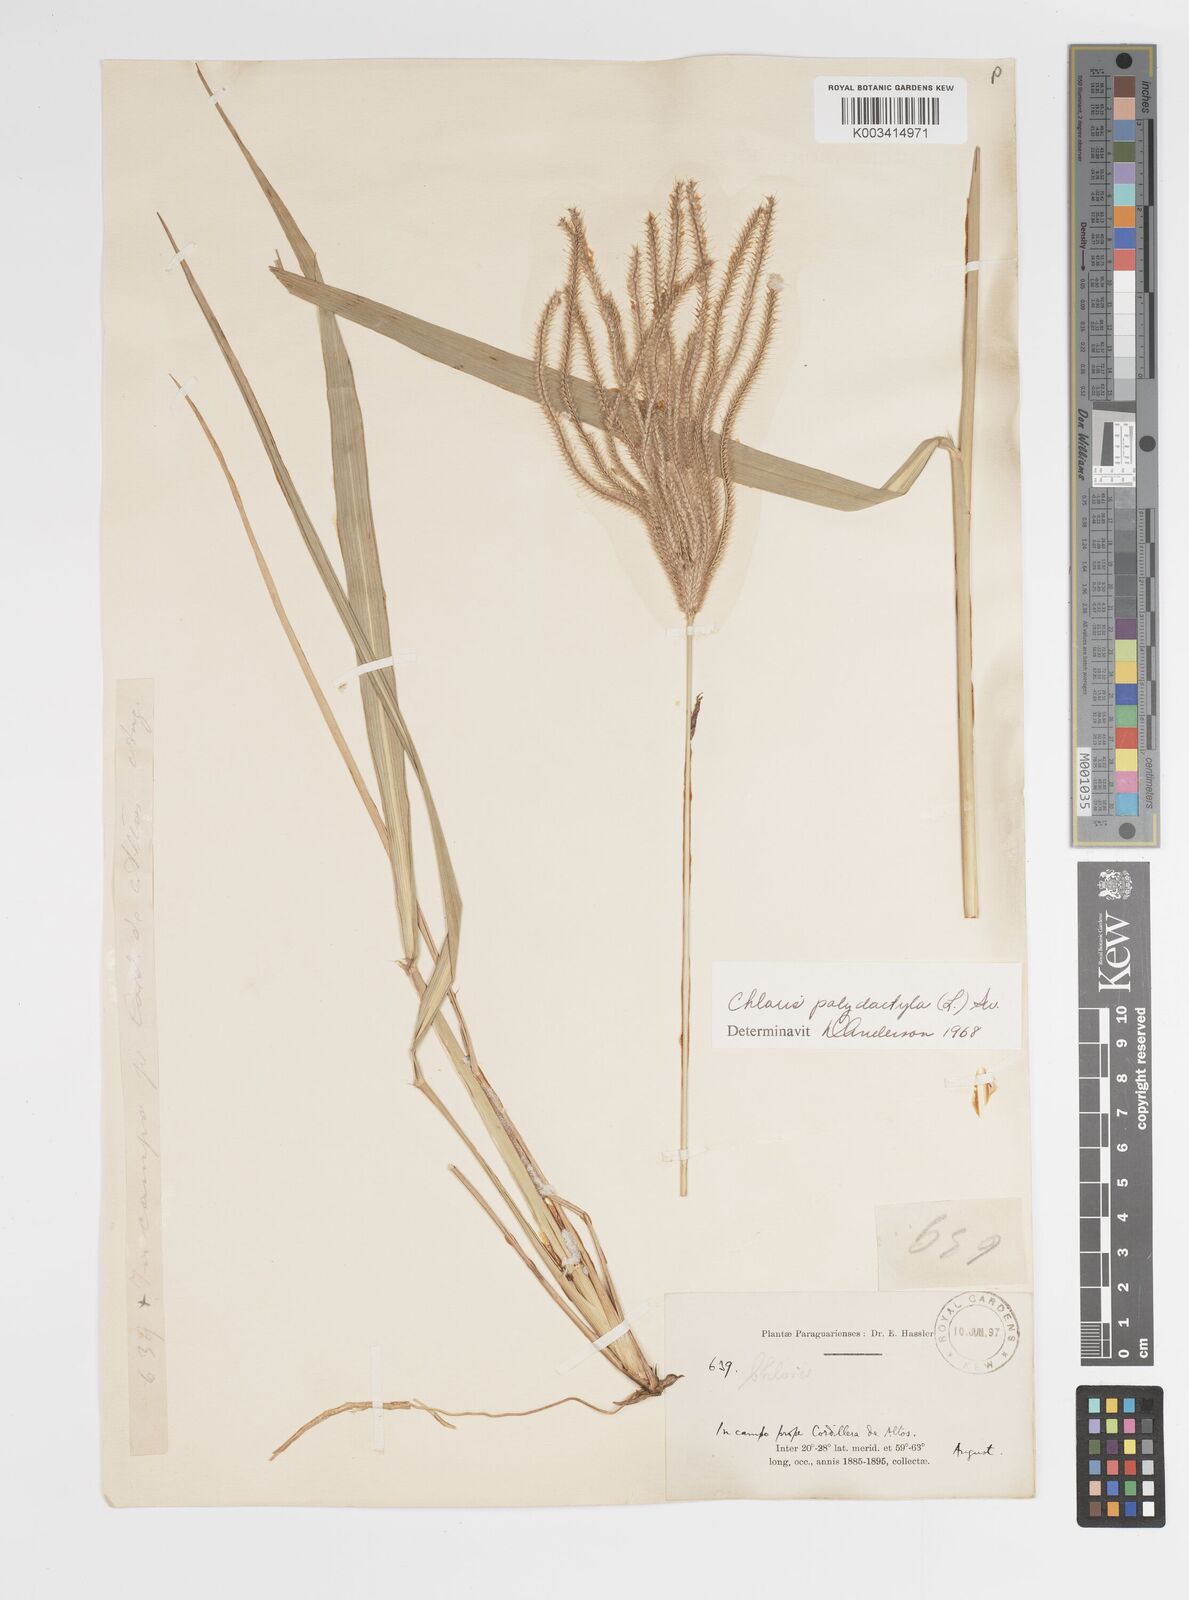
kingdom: Plantae
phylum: Tracheophyta
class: Liliopsida
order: Poales
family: Poaceae
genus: Stapfochloa
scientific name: Stapfochloa elata
